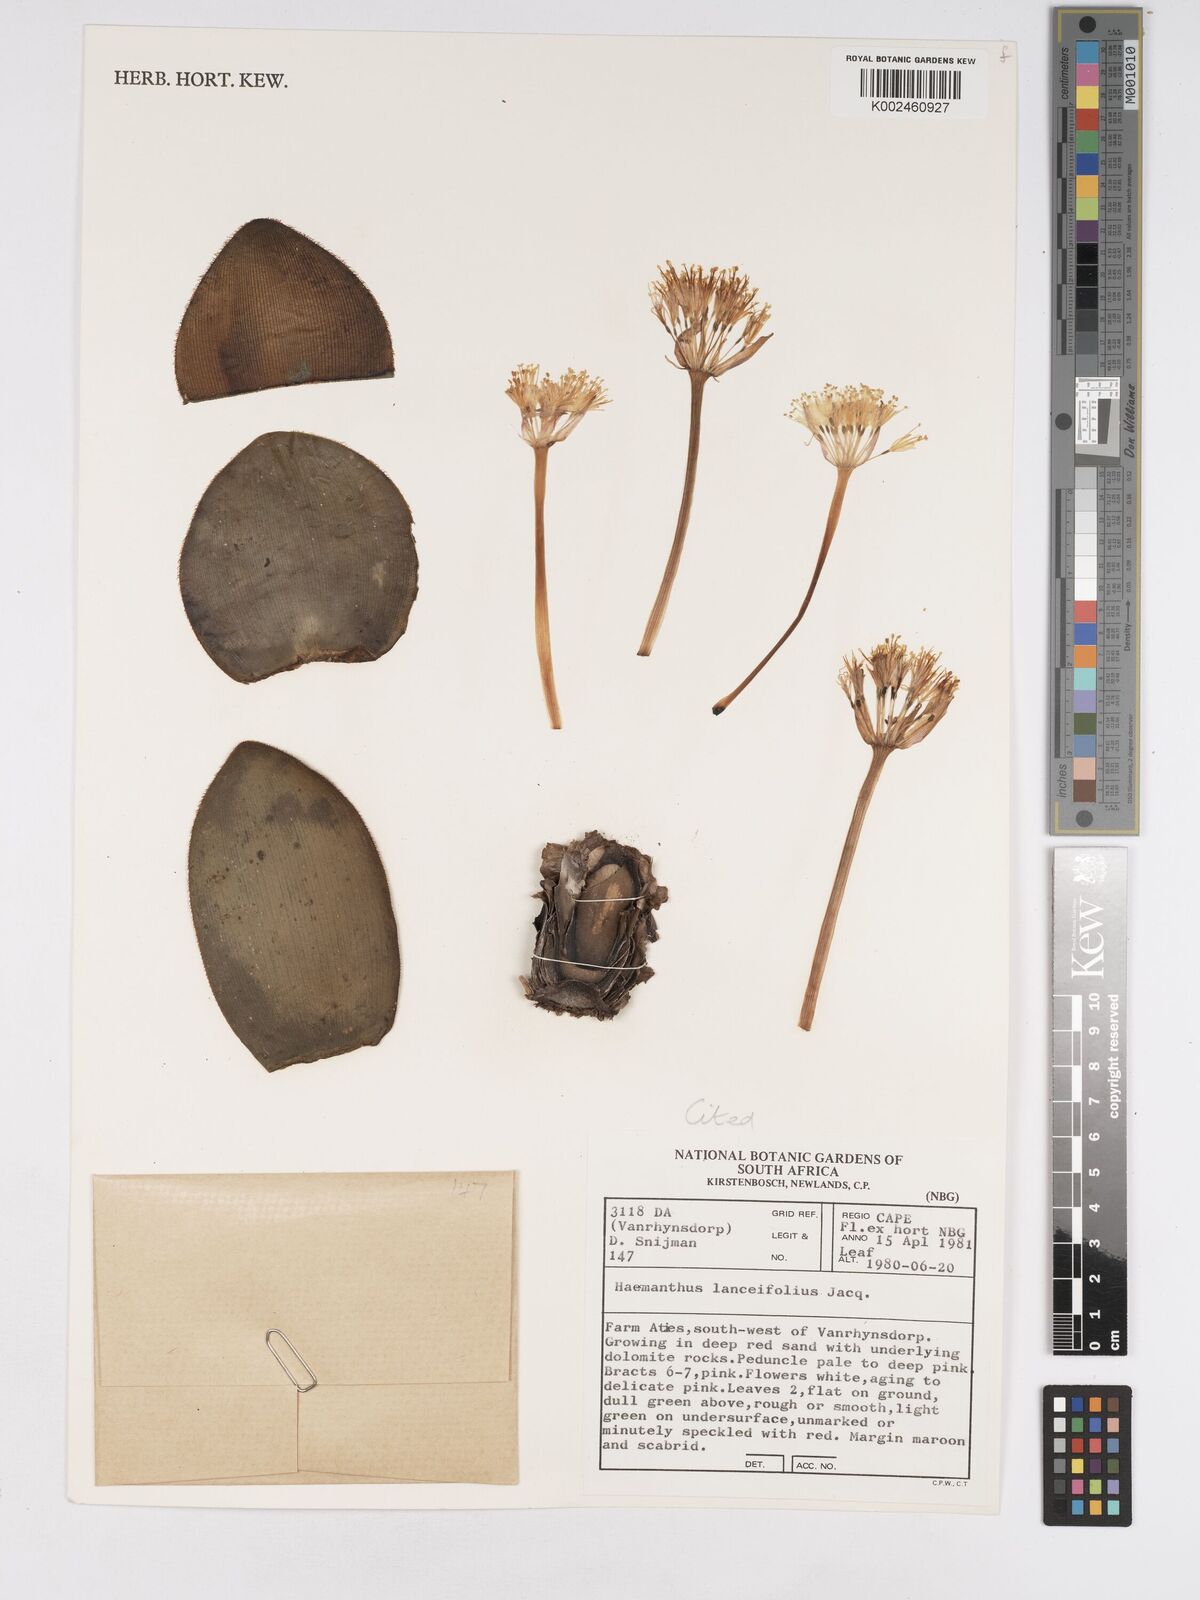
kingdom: Plantae
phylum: Tracheophyta
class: Liliopsida
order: Asparagales
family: Amaryllidaceae
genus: Haemanthus
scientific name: Haemanthus lanceifolius
